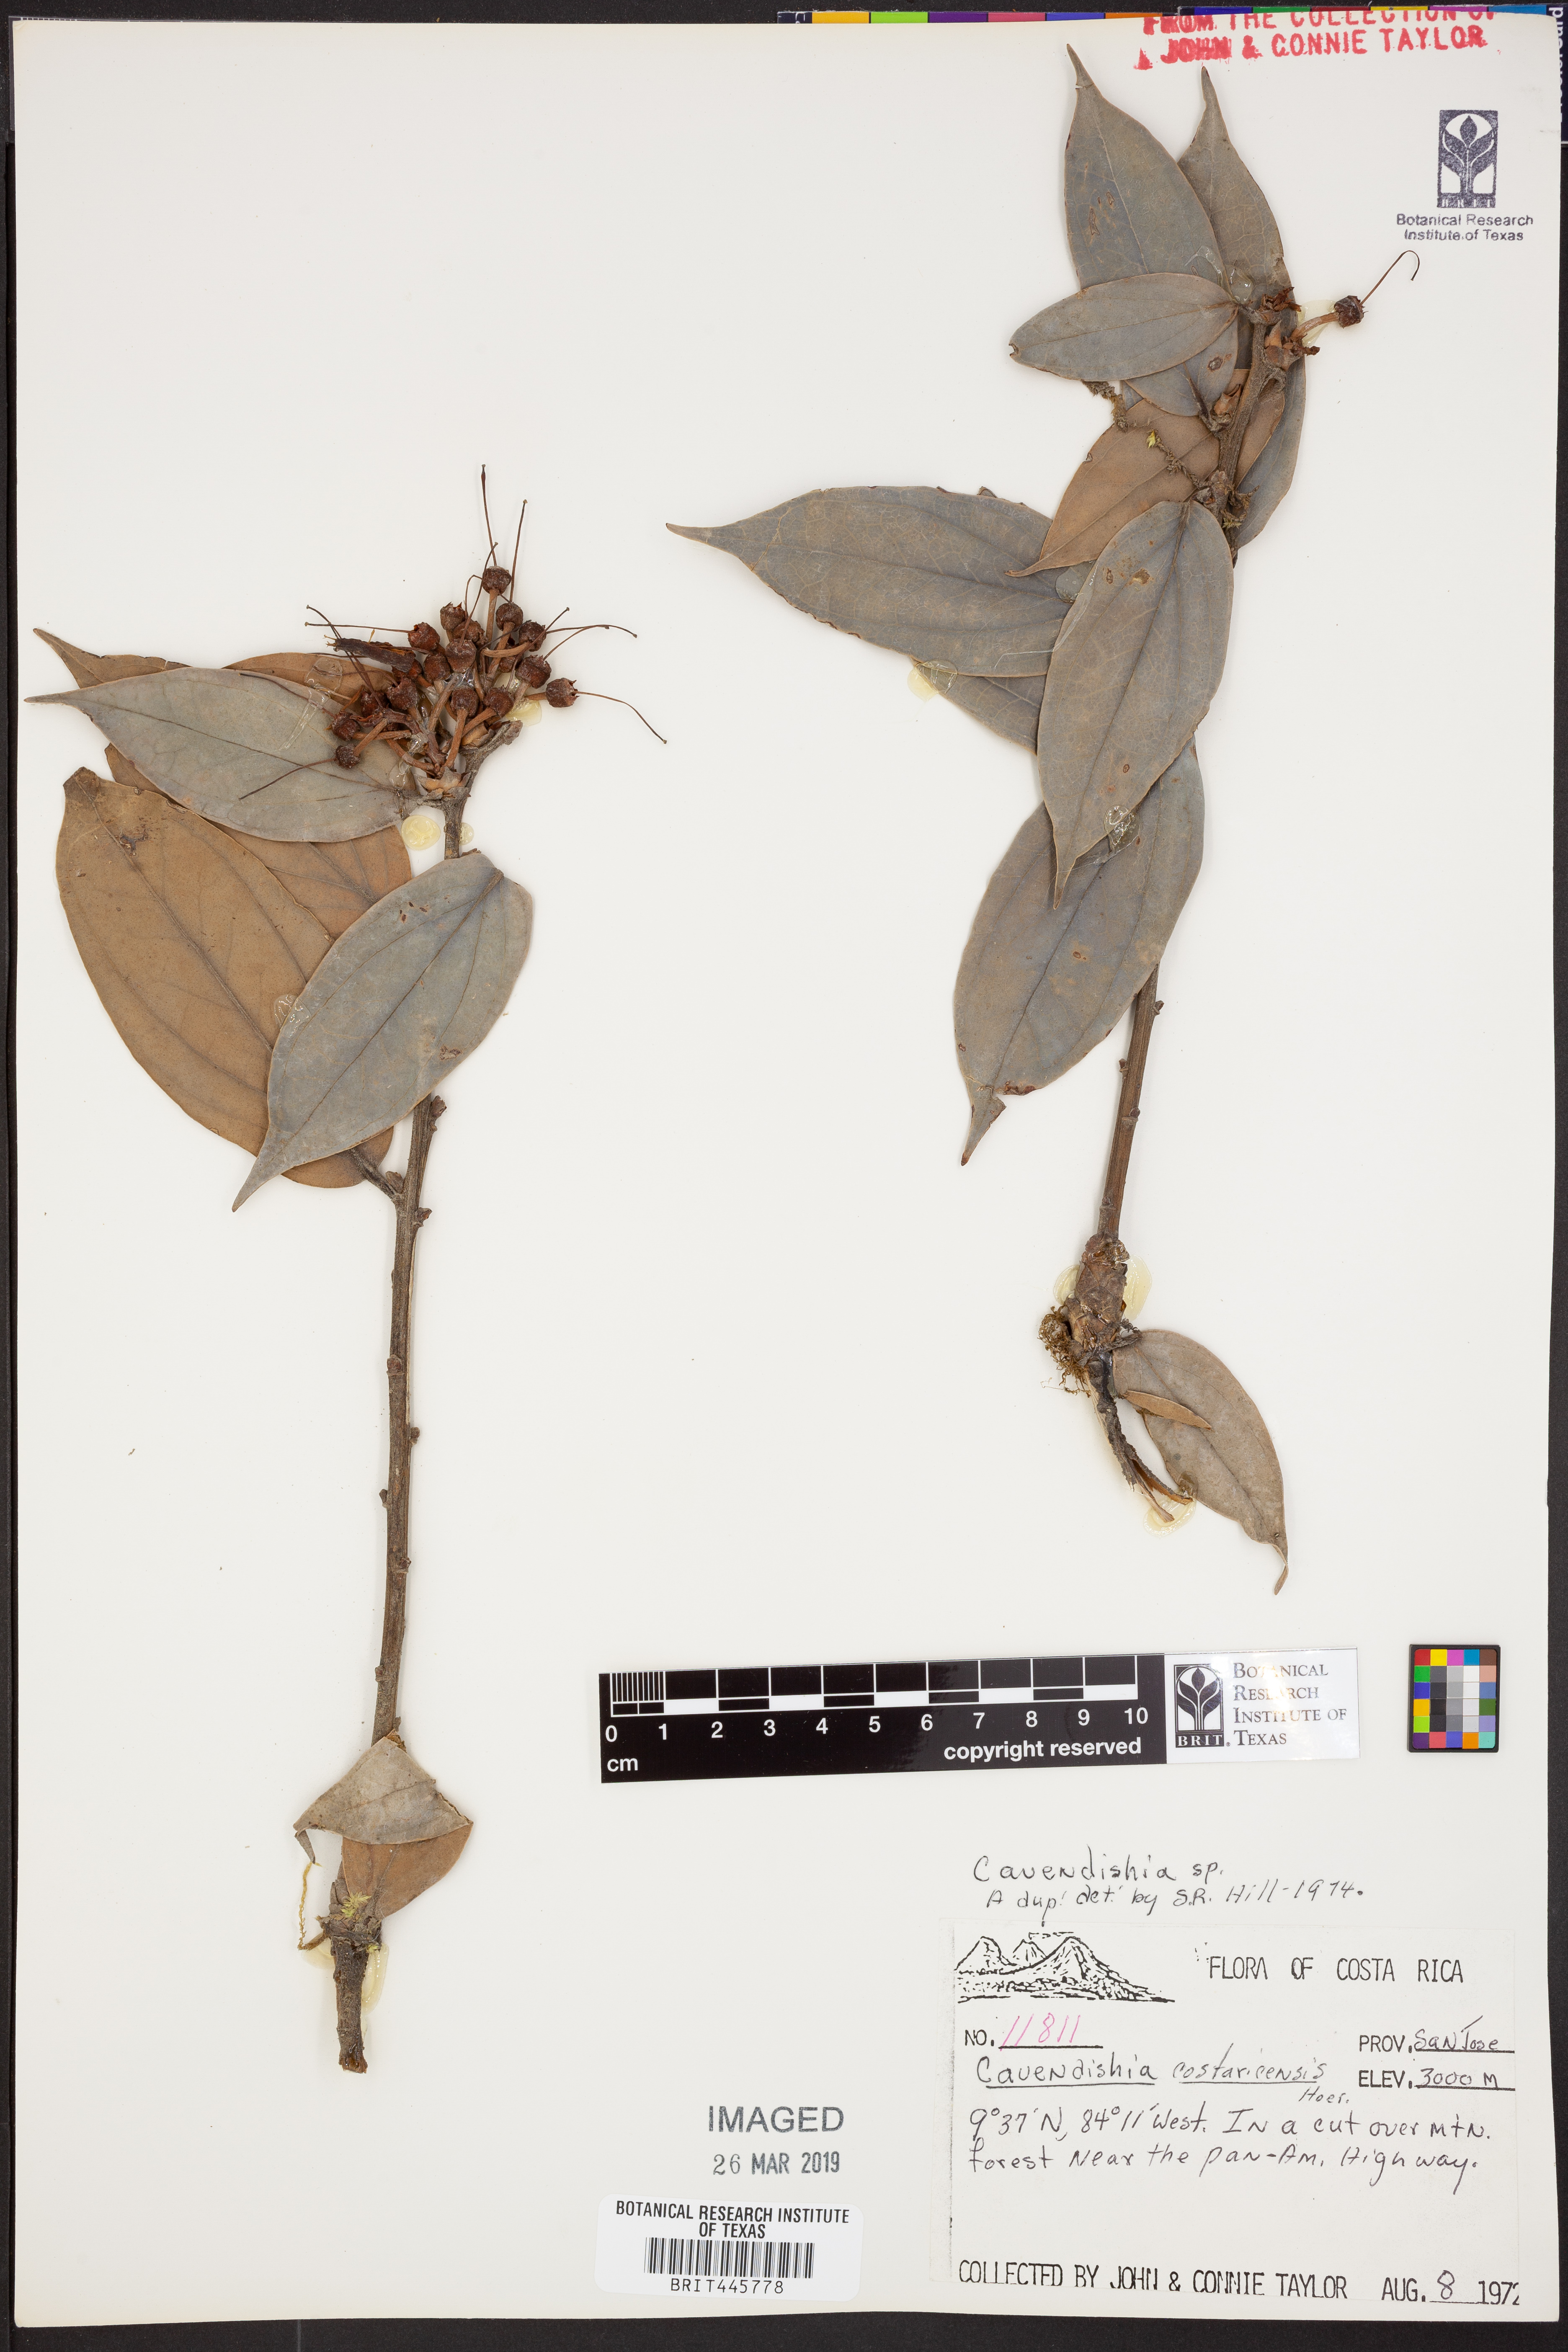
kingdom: Plantae
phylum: Tracheophyta
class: Magnoliopsida
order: Ericales
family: Ericaceae
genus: Cavendishia
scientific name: Cavendishia
